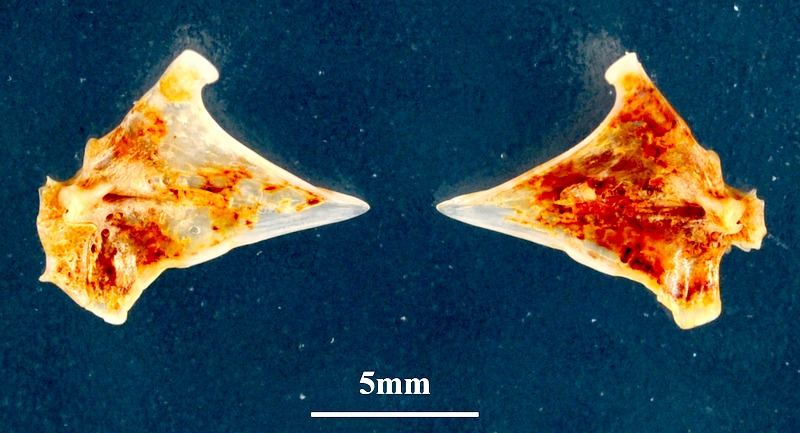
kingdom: Animalia
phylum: Chordata
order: Perciformes
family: Sparidae
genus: Diplodus
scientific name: Diplodus annularis
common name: Annular seabream
